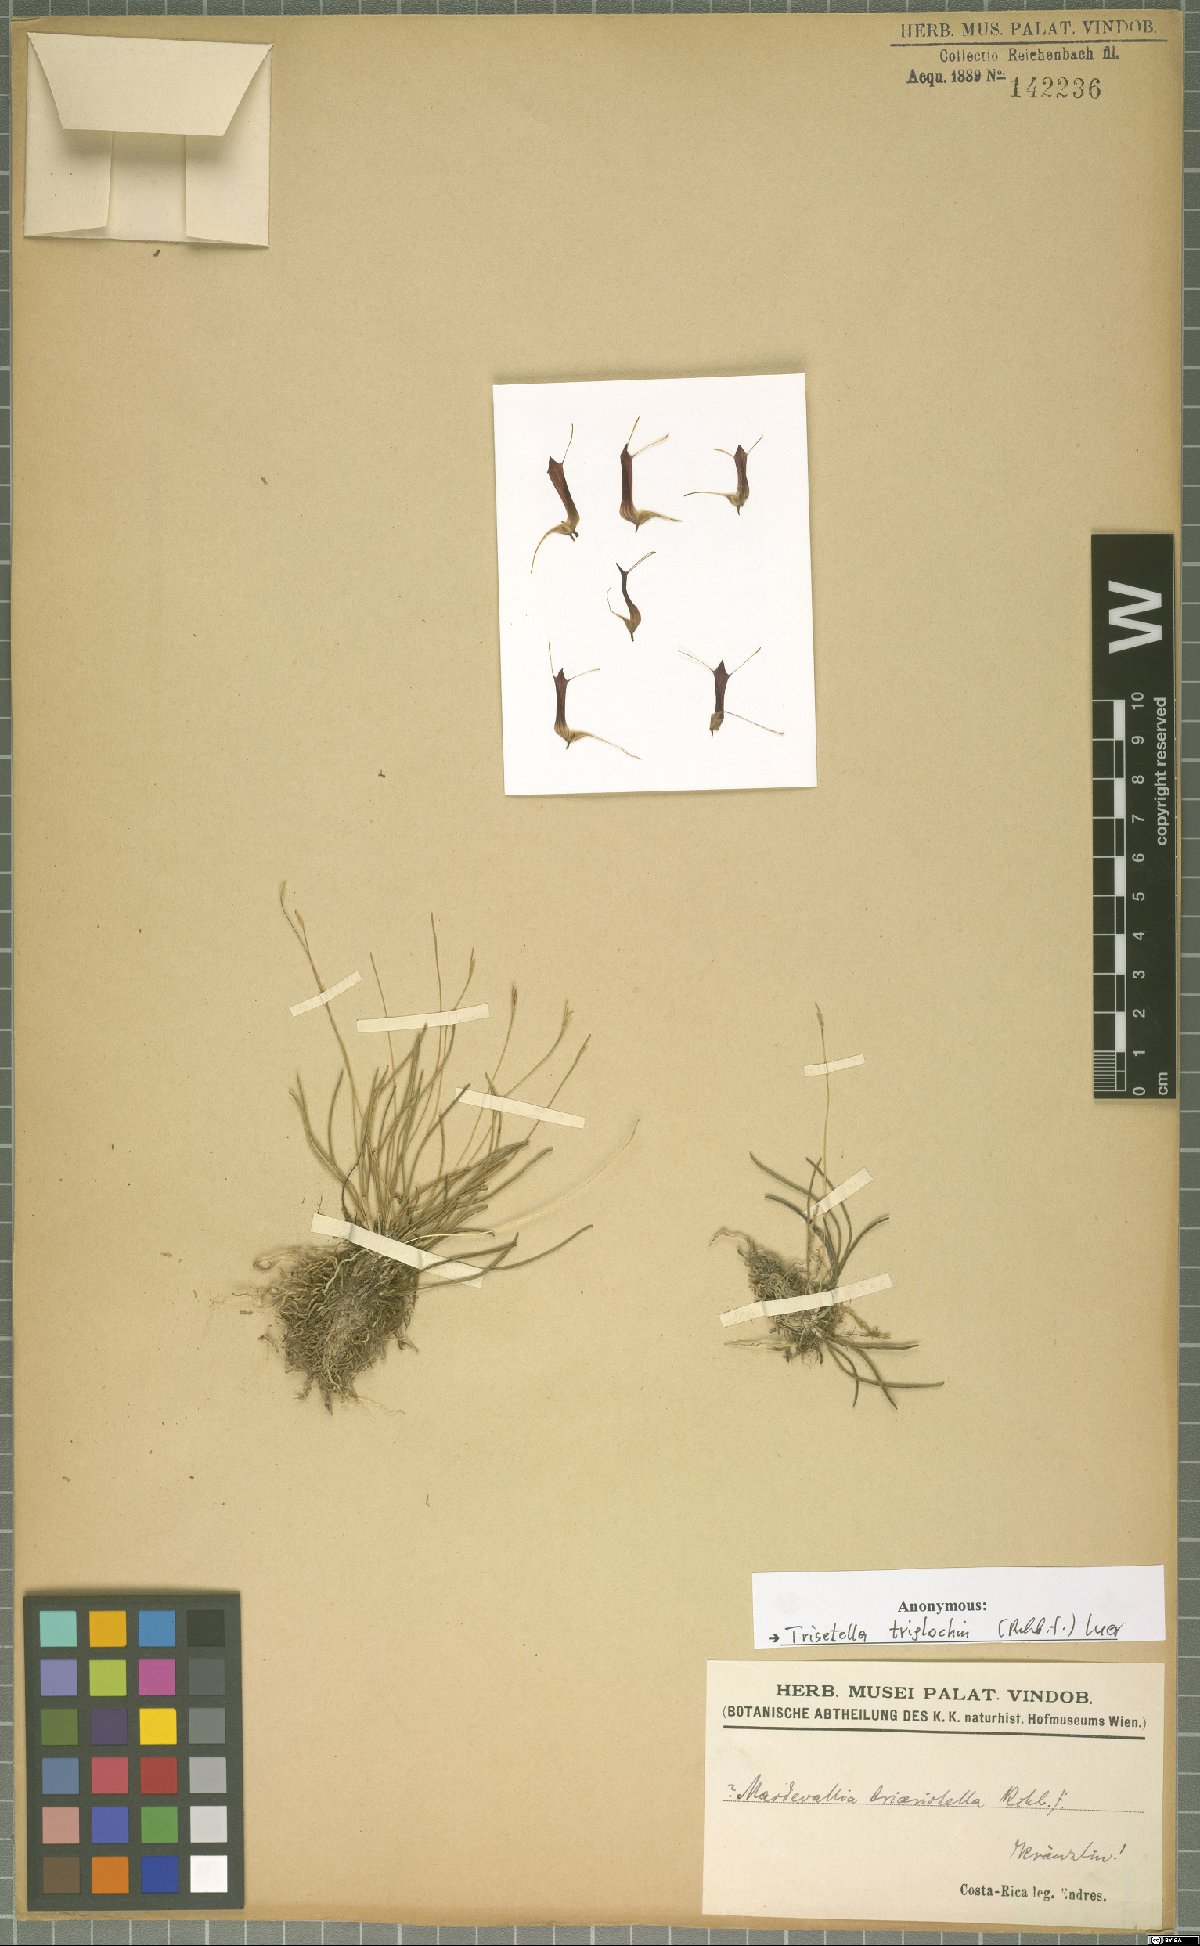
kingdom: Plantae
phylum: Tracheophyta
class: Liliopsida
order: Asparagales
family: Orchidaceae
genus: Trisetella
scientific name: Trisetella triglochin
